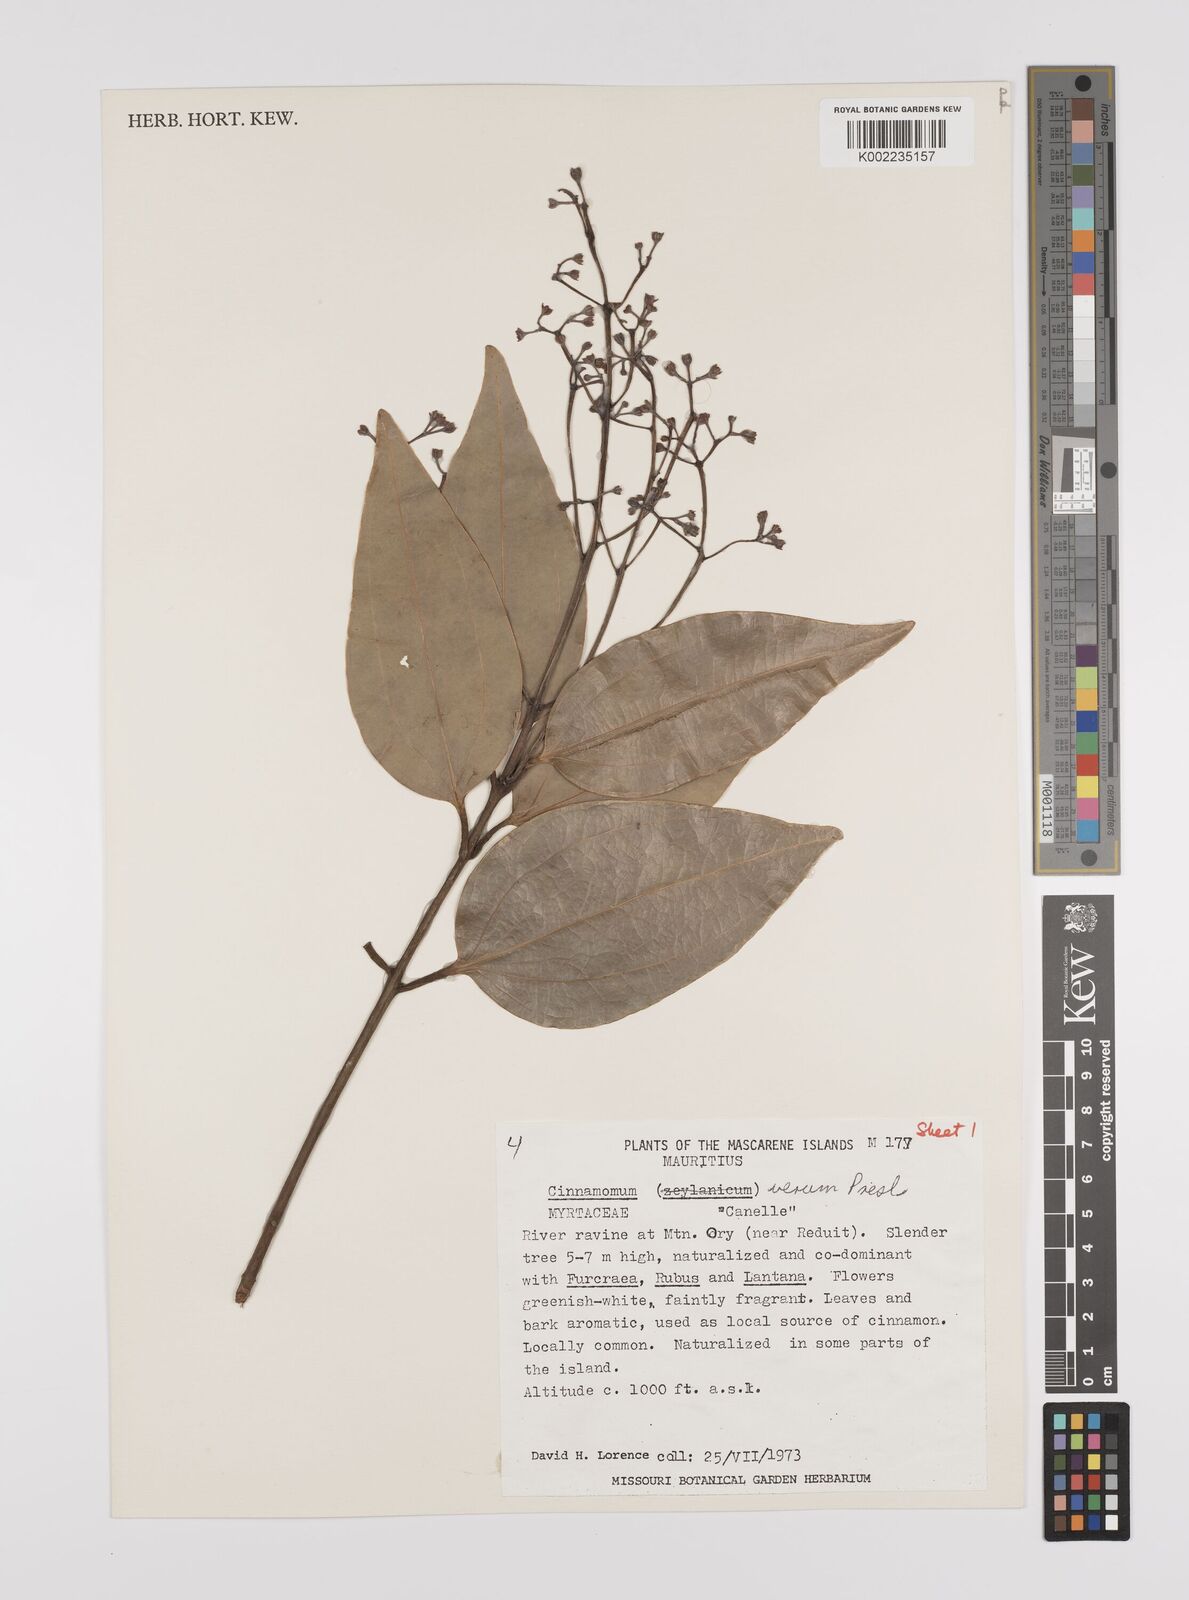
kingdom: Plantae
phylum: Tracheophyta
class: Magnoliopsida
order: Laurales
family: Lauraceae
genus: Cinnamomum
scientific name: Cinnamomum verum
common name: Cinnamon
